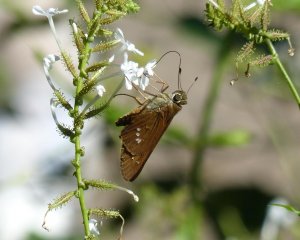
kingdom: Animalia
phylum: Arthropoda
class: Insecta
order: Lepidoptera
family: Hesperiidae
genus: Calpodes
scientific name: Calpodes ethlius
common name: Brazilian Skipper
